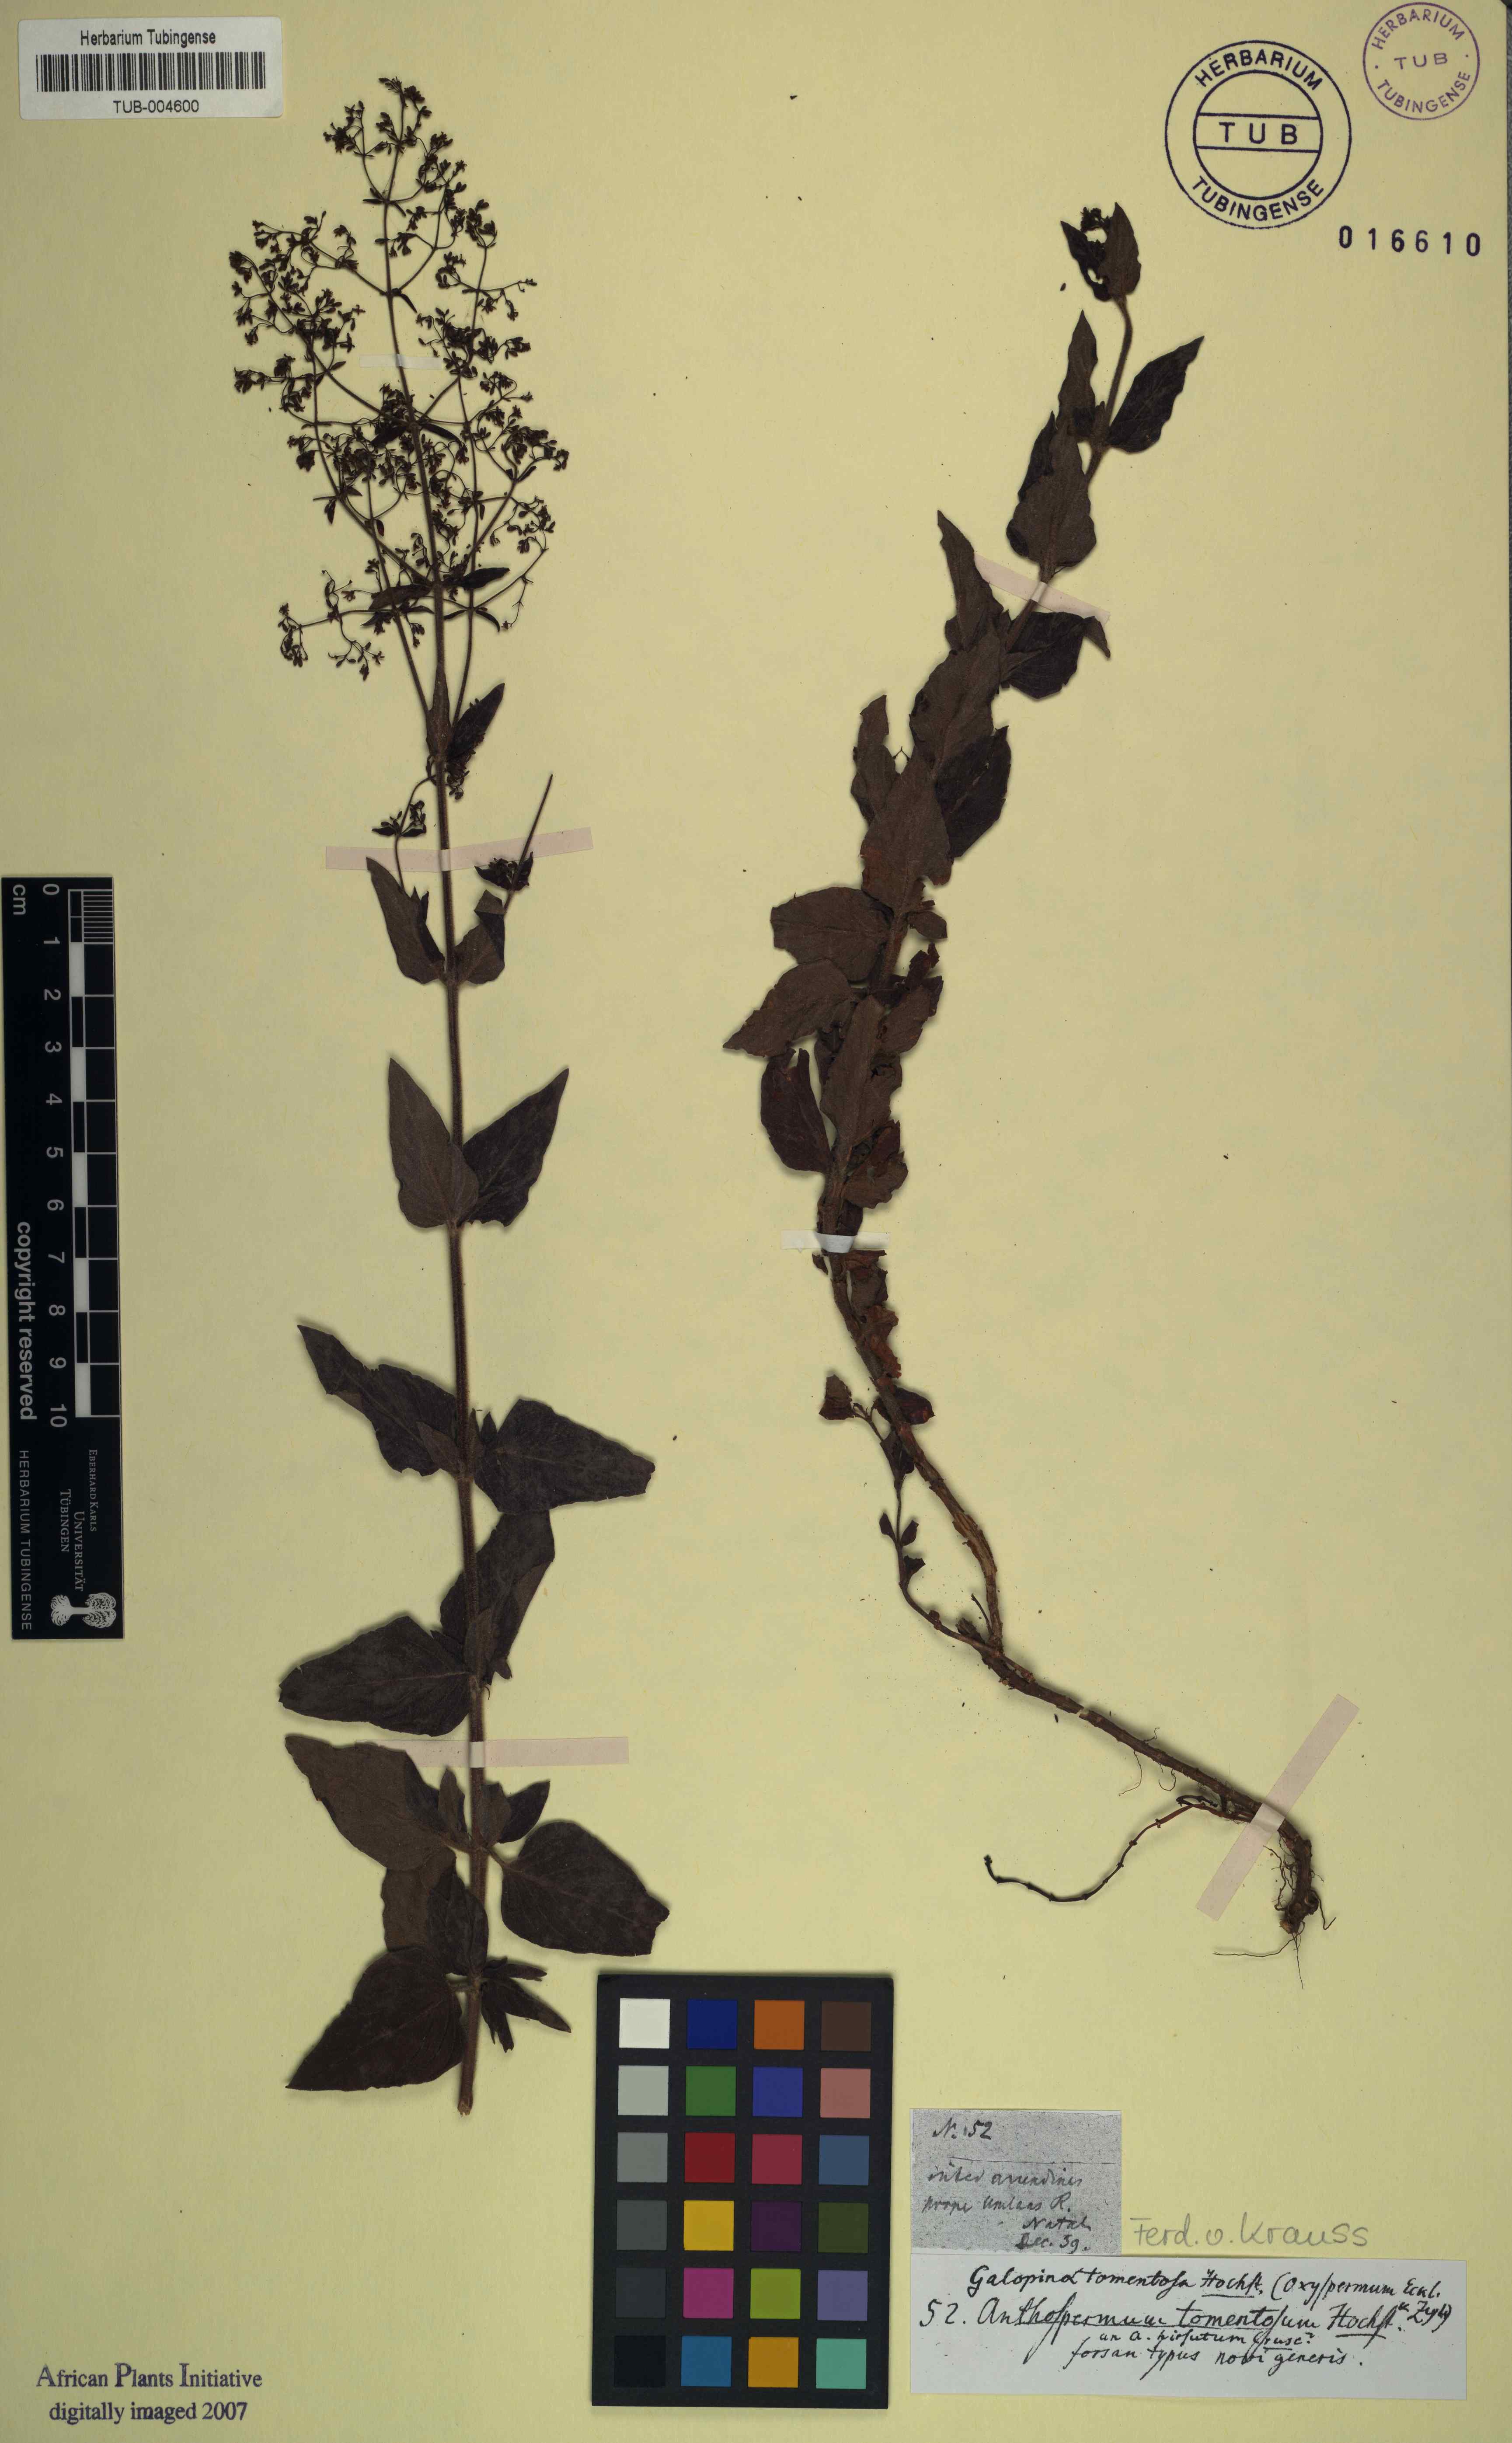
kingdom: Plantae
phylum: Tracheophyta
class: Magnoliopsida
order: Gentianales
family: Rubiaceae
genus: Galopina
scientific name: Galopina aspera
